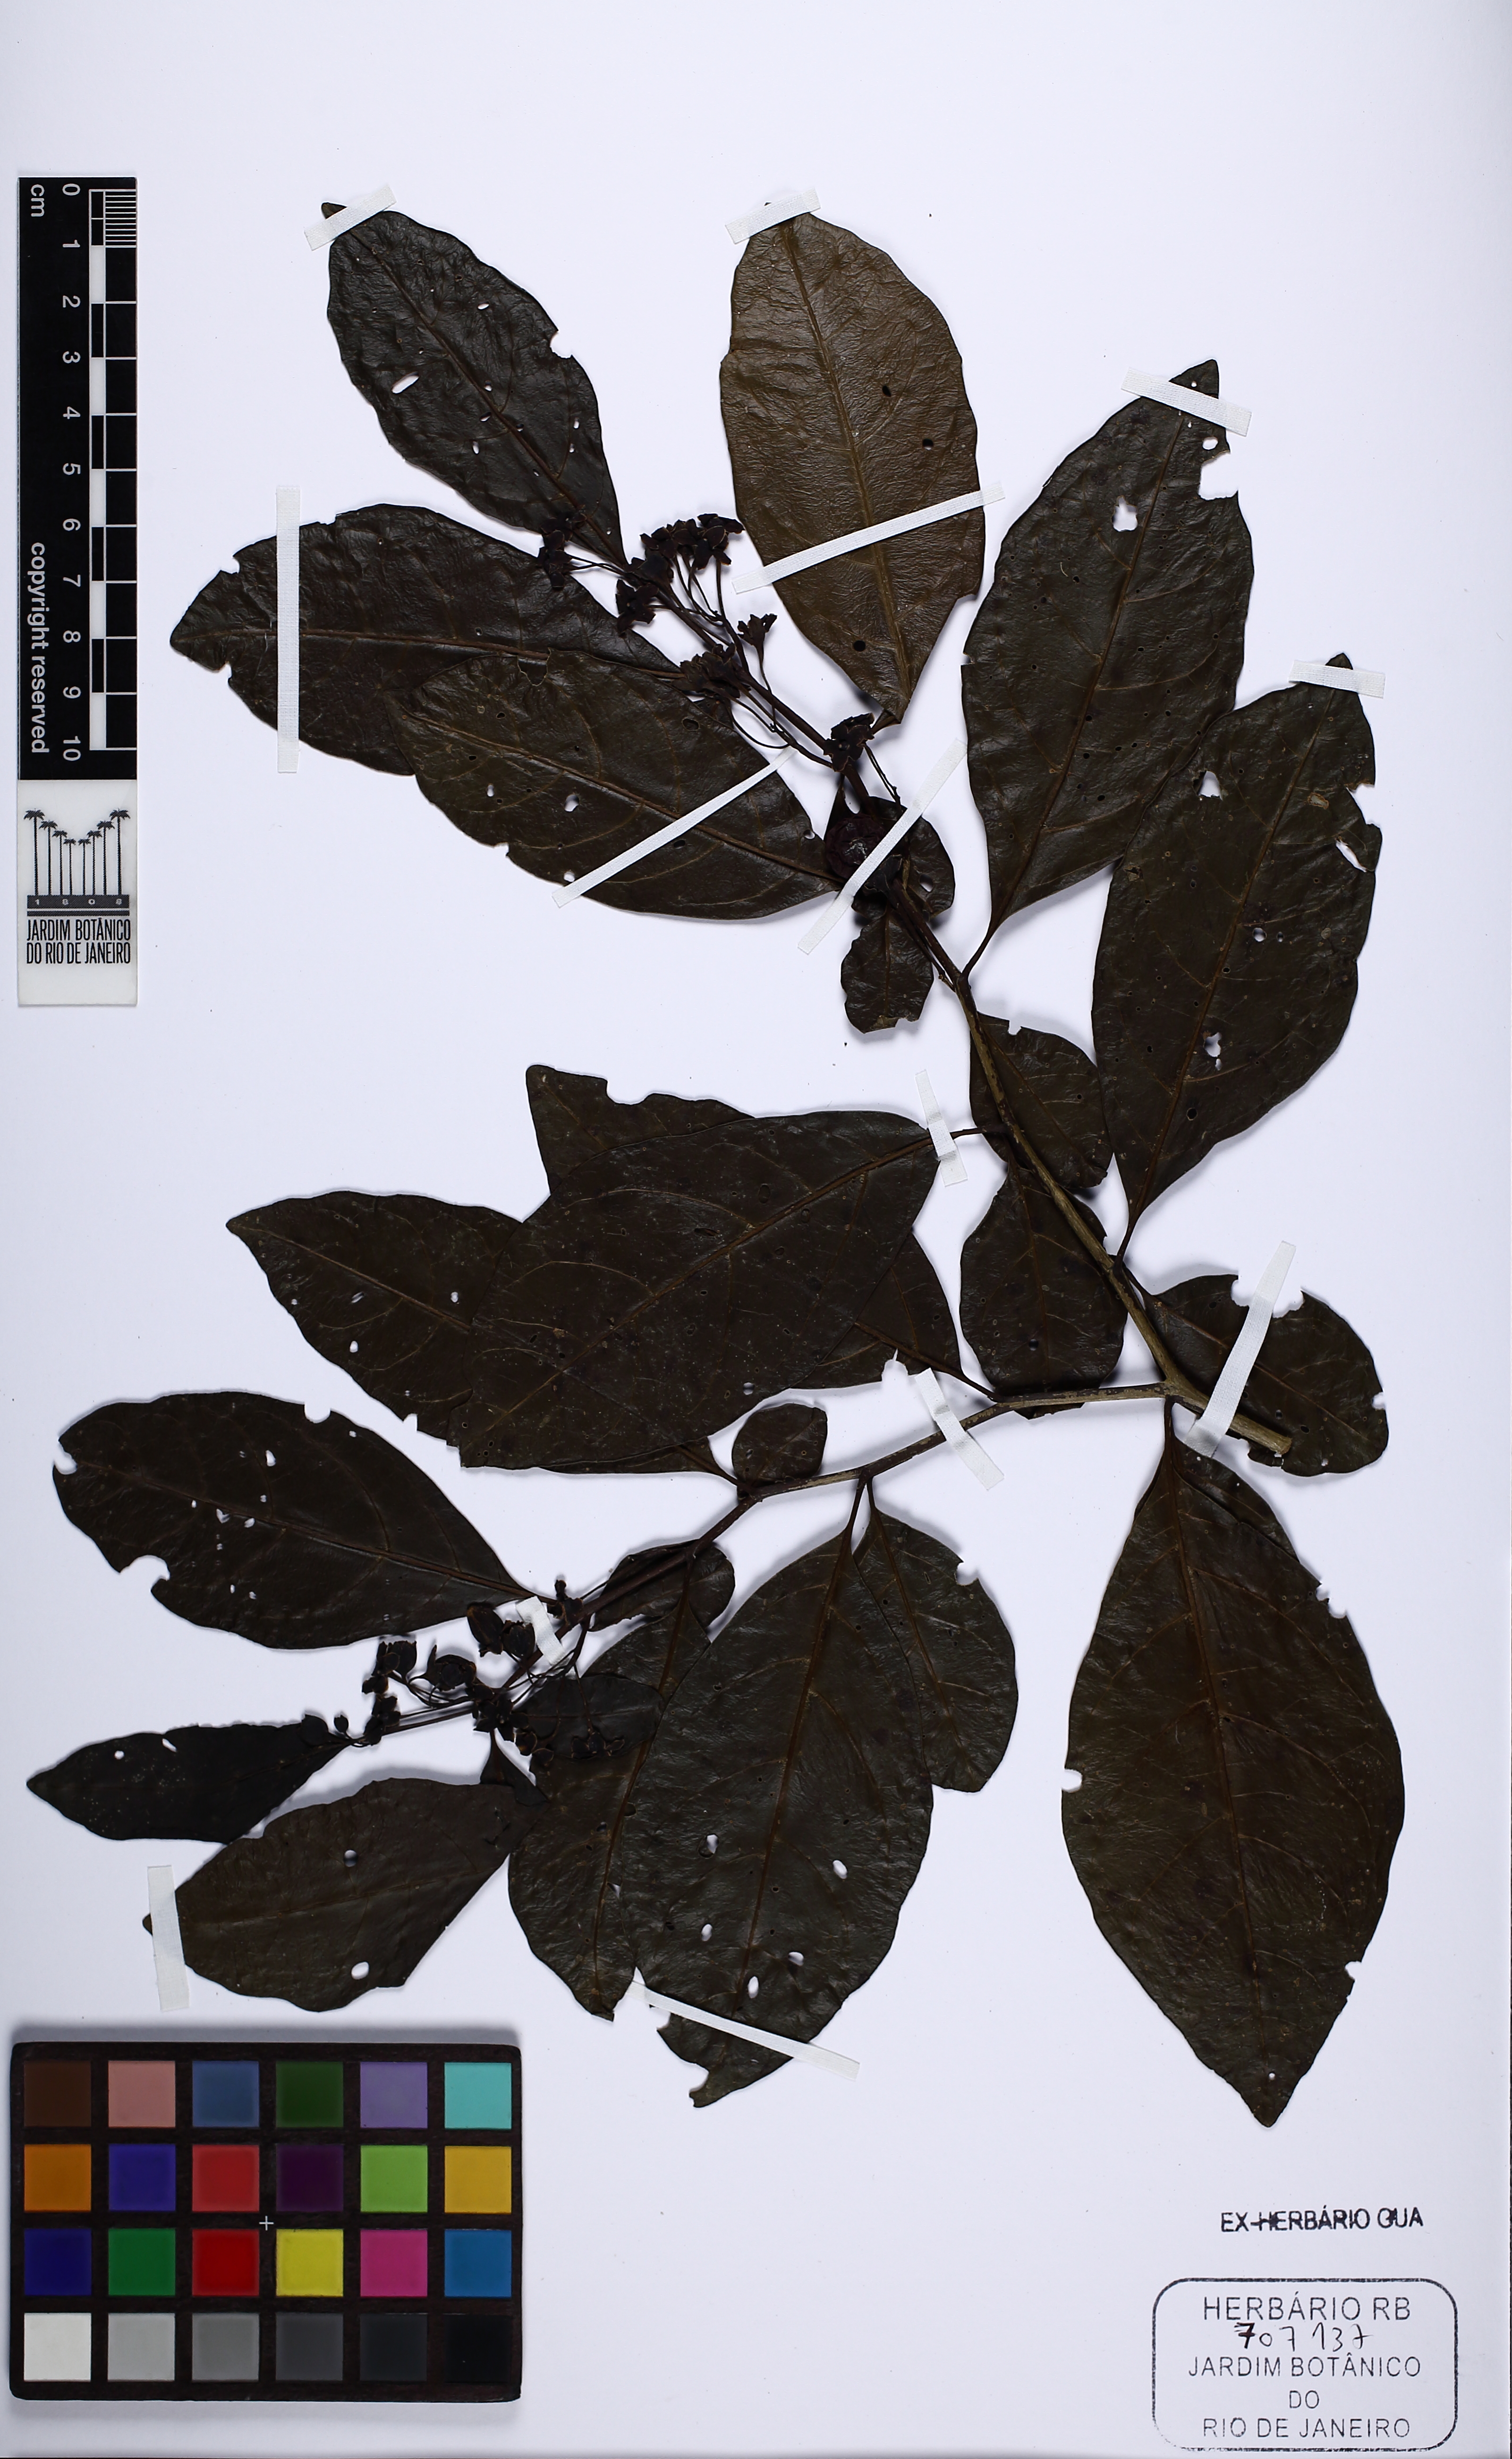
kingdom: Plantae
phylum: Tracheophyta
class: Magnoliopsida
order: Solanales
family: Solanaceae
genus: Solanum
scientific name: Solanum
